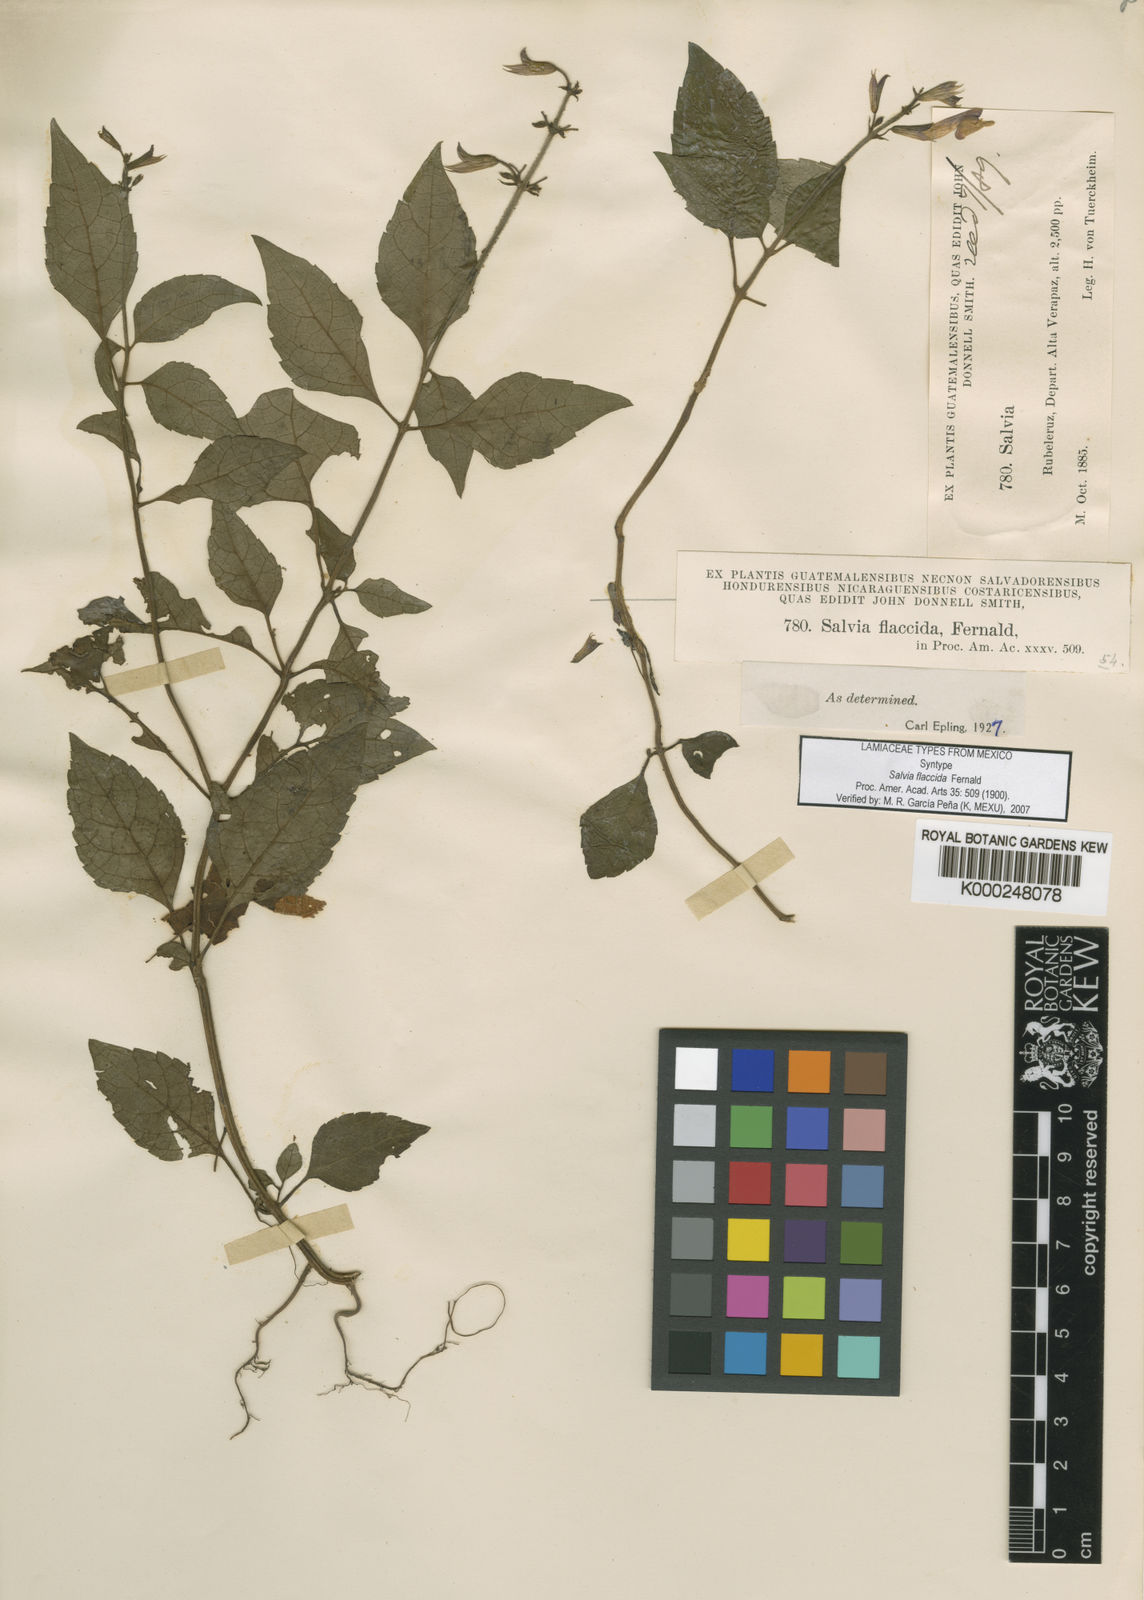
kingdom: Plantae
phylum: Tracheophyta
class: Magnoliopsida
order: Lamiales
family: Lamiaceae
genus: Salvia
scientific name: Salvia flaccida
